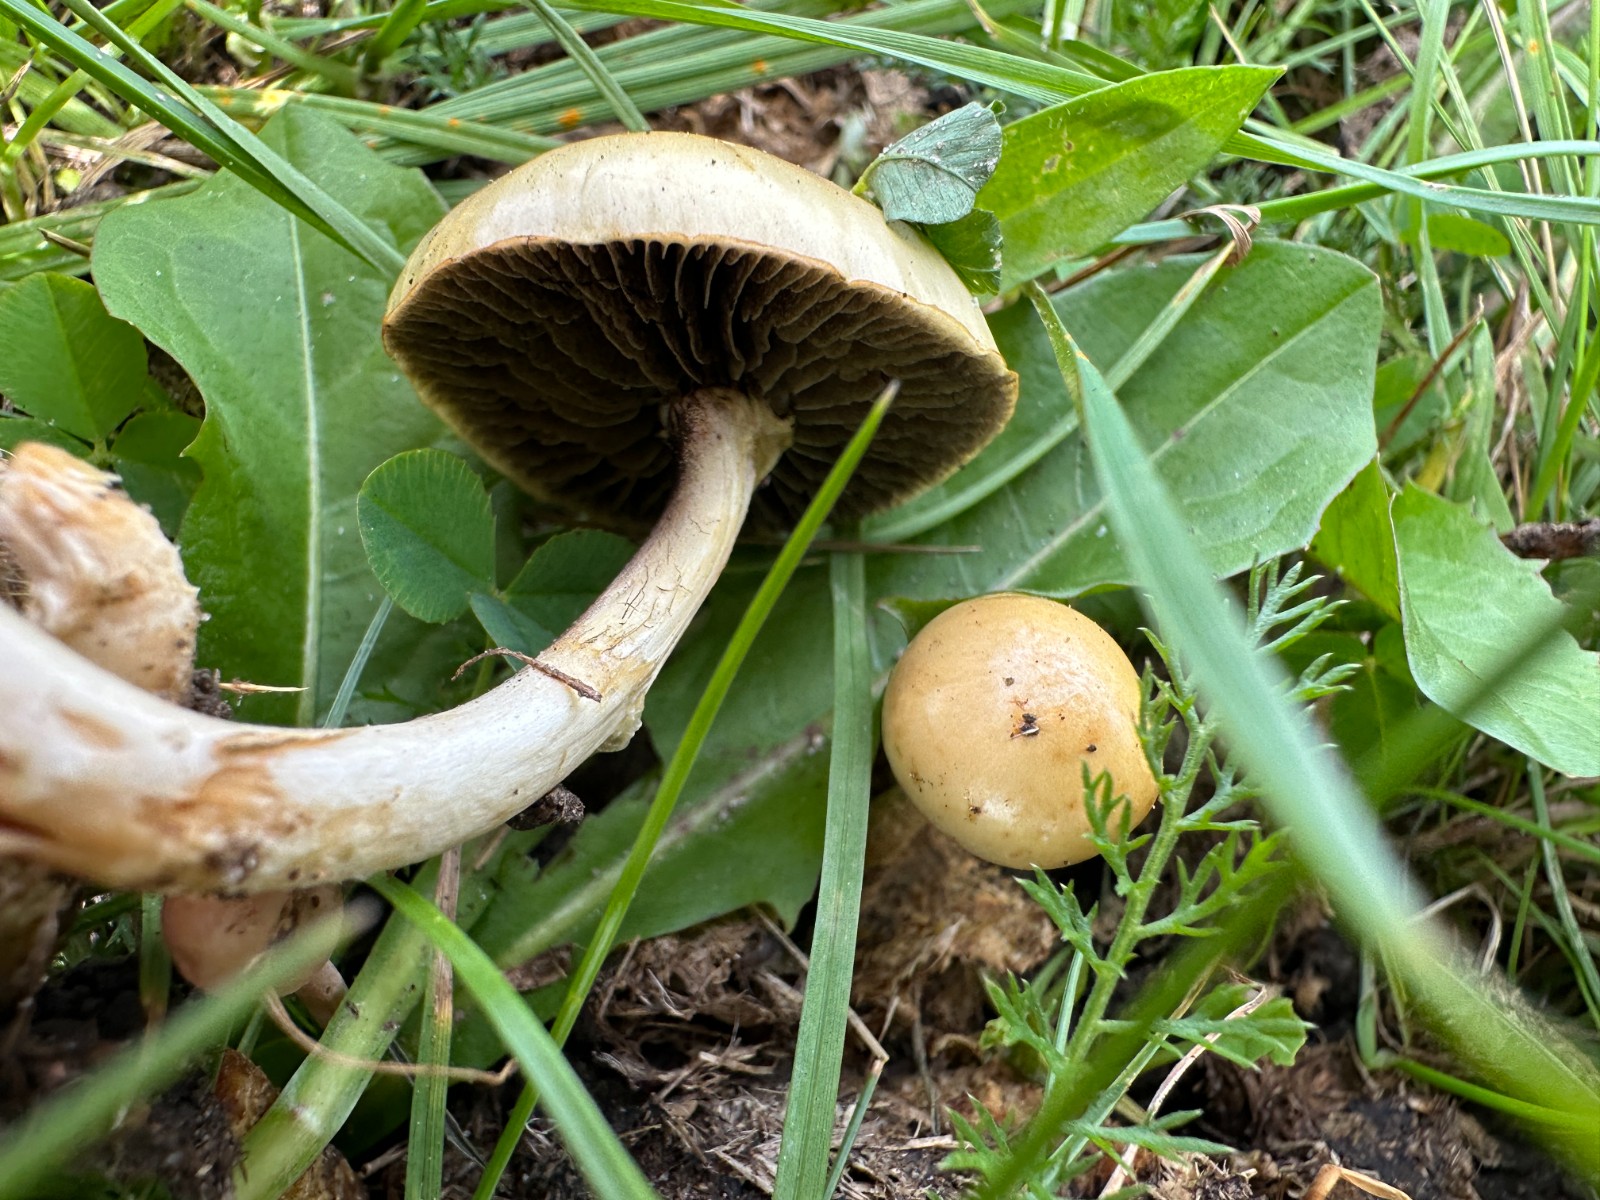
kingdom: Fungi
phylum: Basidiomycota
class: Agaricomycetes
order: Agaricales
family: Strophariaceae
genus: Protostropharia
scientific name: Protostropharia semiglobata
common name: halvkugleformet bredblad
